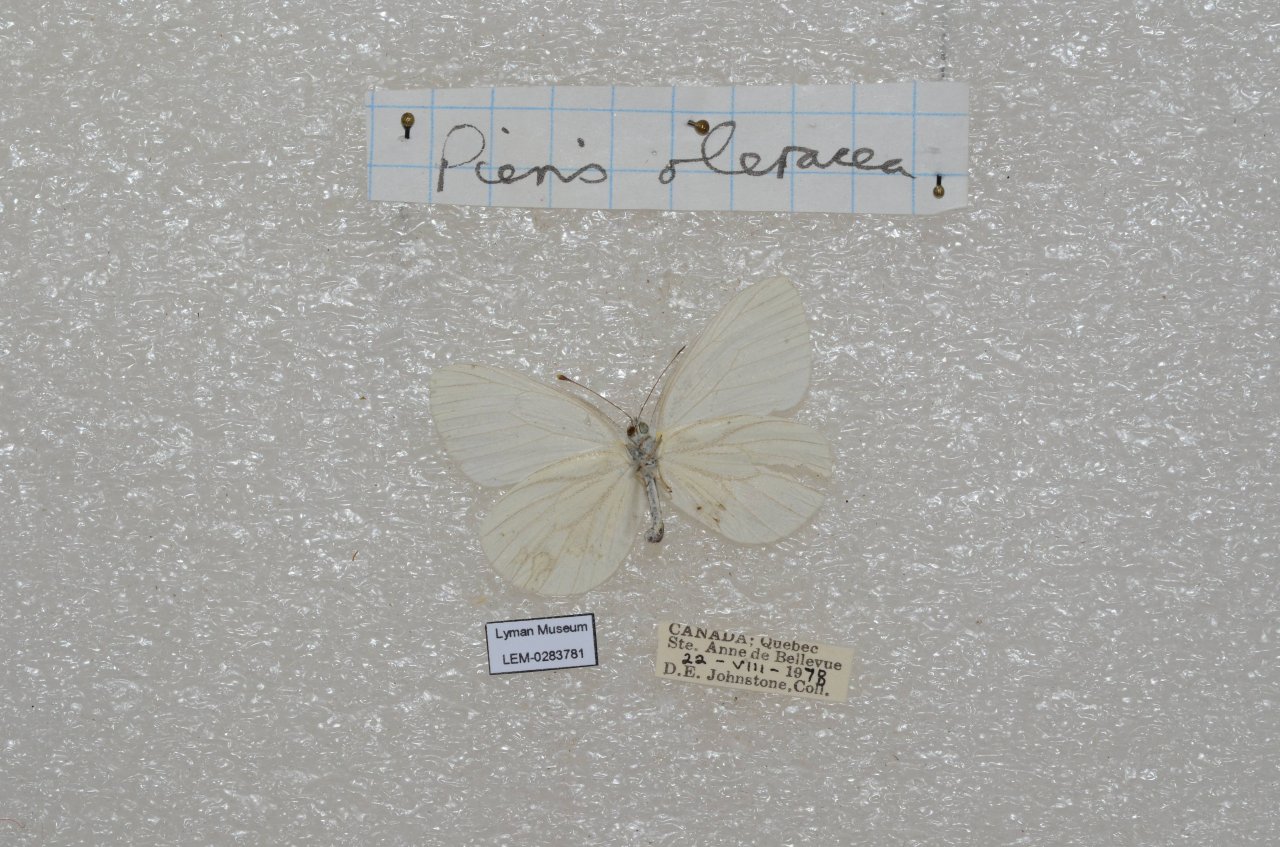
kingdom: Animalia
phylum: Arthropoda
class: Insecta
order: Lepidoptera
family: Pieridae
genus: Pieris
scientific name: Pieris oleracea
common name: Mustard White
